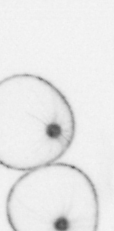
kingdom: Chromista
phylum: Myzozoa
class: Dinophyceae
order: Noctilucales
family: Noctilucaceae
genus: Noctiluca
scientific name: Noctiluca scintillans
